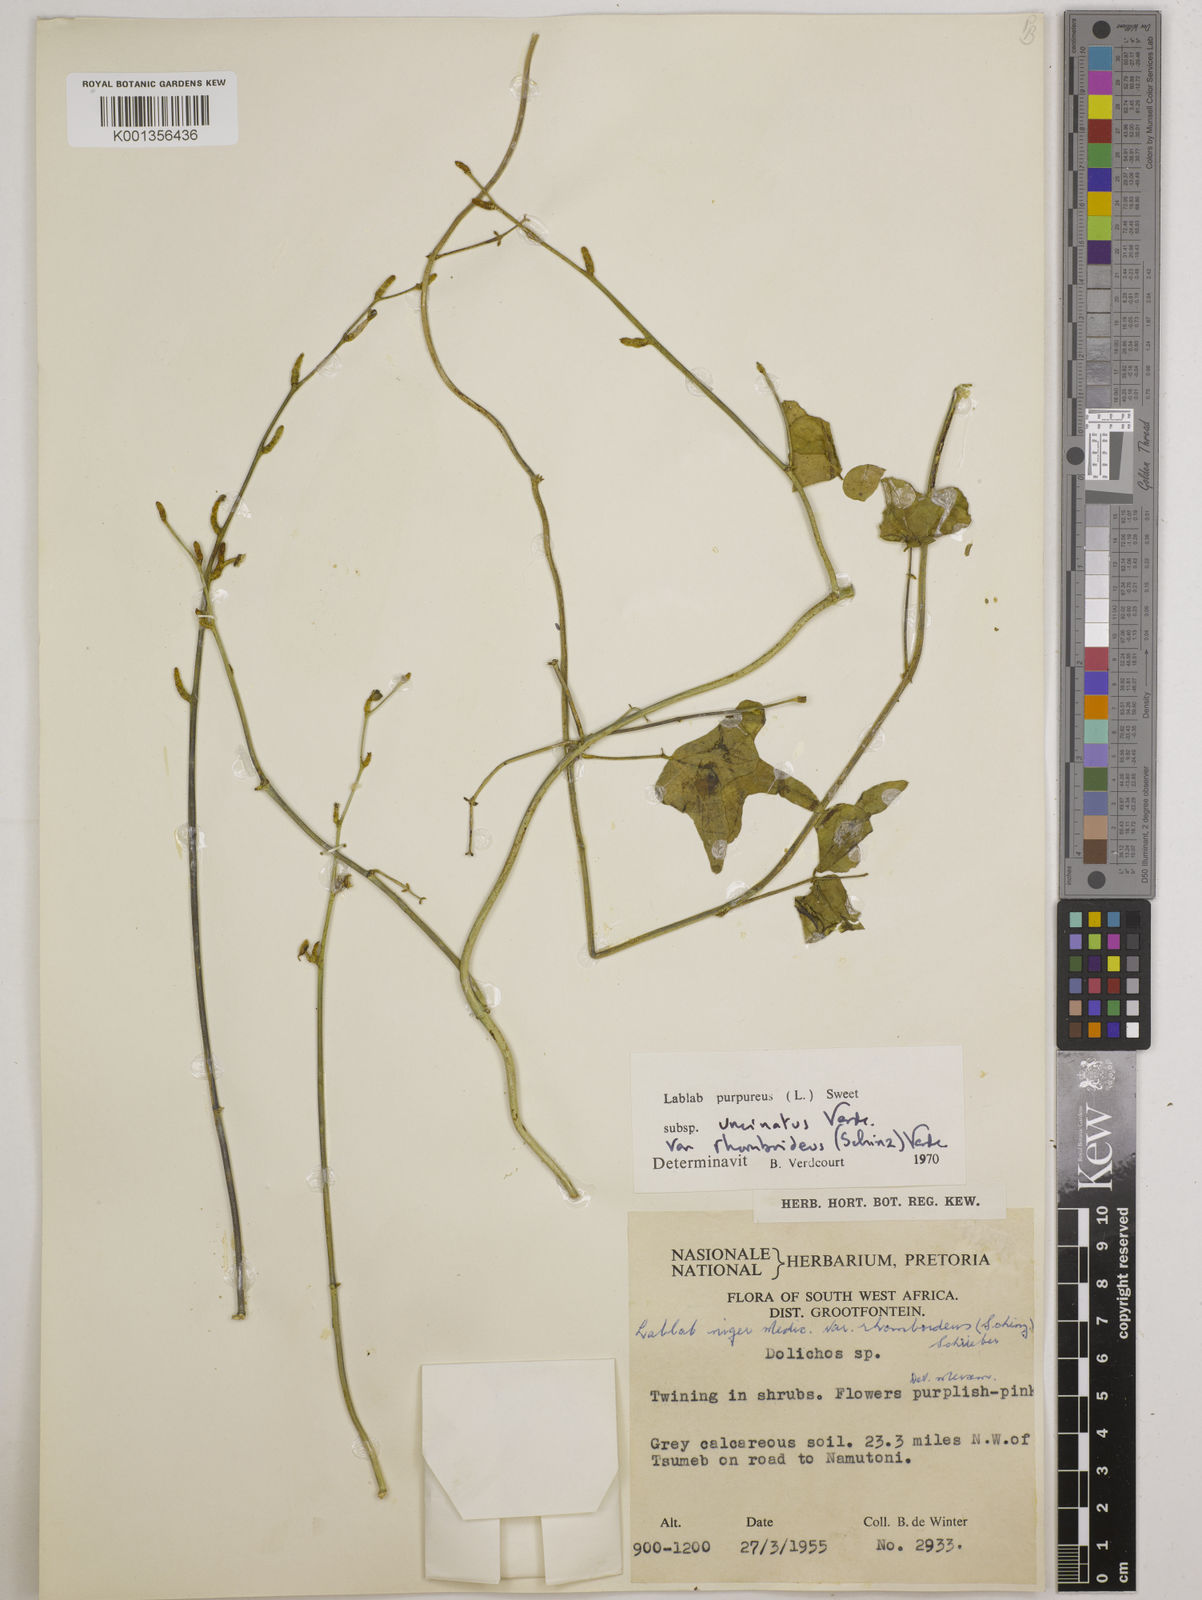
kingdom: Plantae
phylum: Tracheophyta
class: Magnoliopsida
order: Fabales
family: Fabaceae
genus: Lablab
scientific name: Lablab purpureus
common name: Lablab-bean
